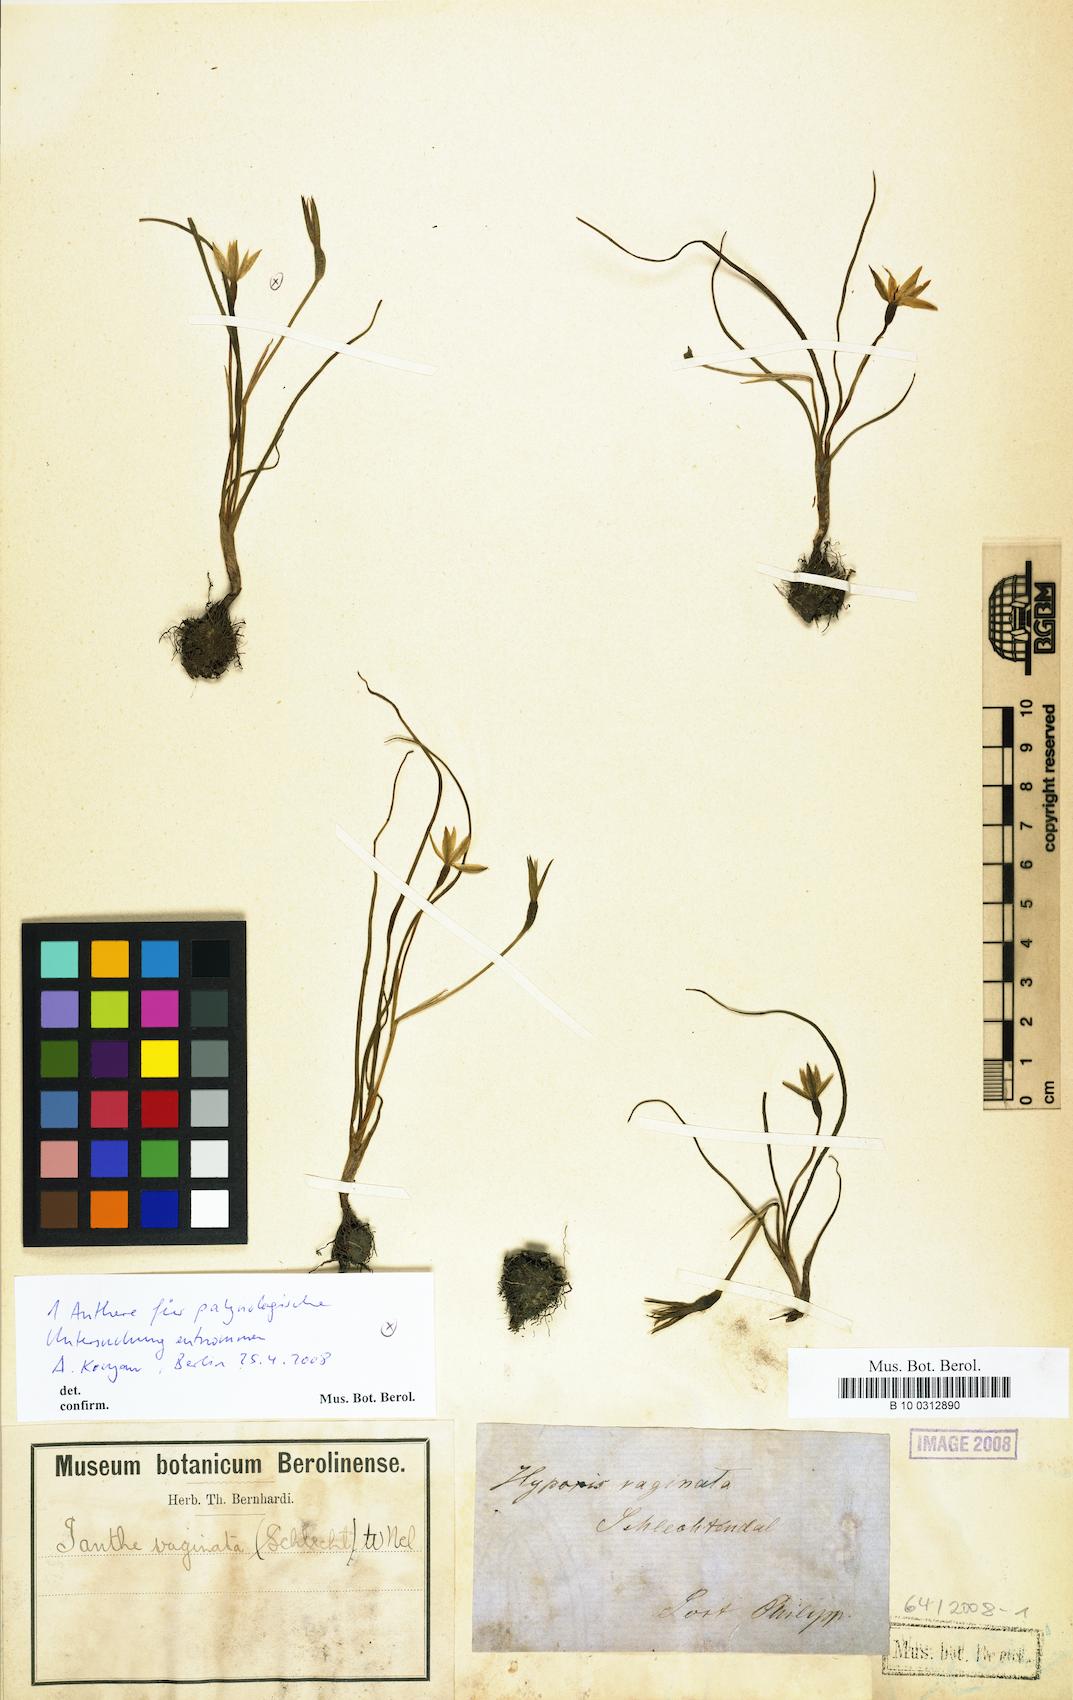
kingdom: Plantae
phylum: Tracheophyta
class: Liliopsida
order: Asparagales
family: Hypoxidaceae
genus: Pauridia
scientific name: Pauridia vaginata
